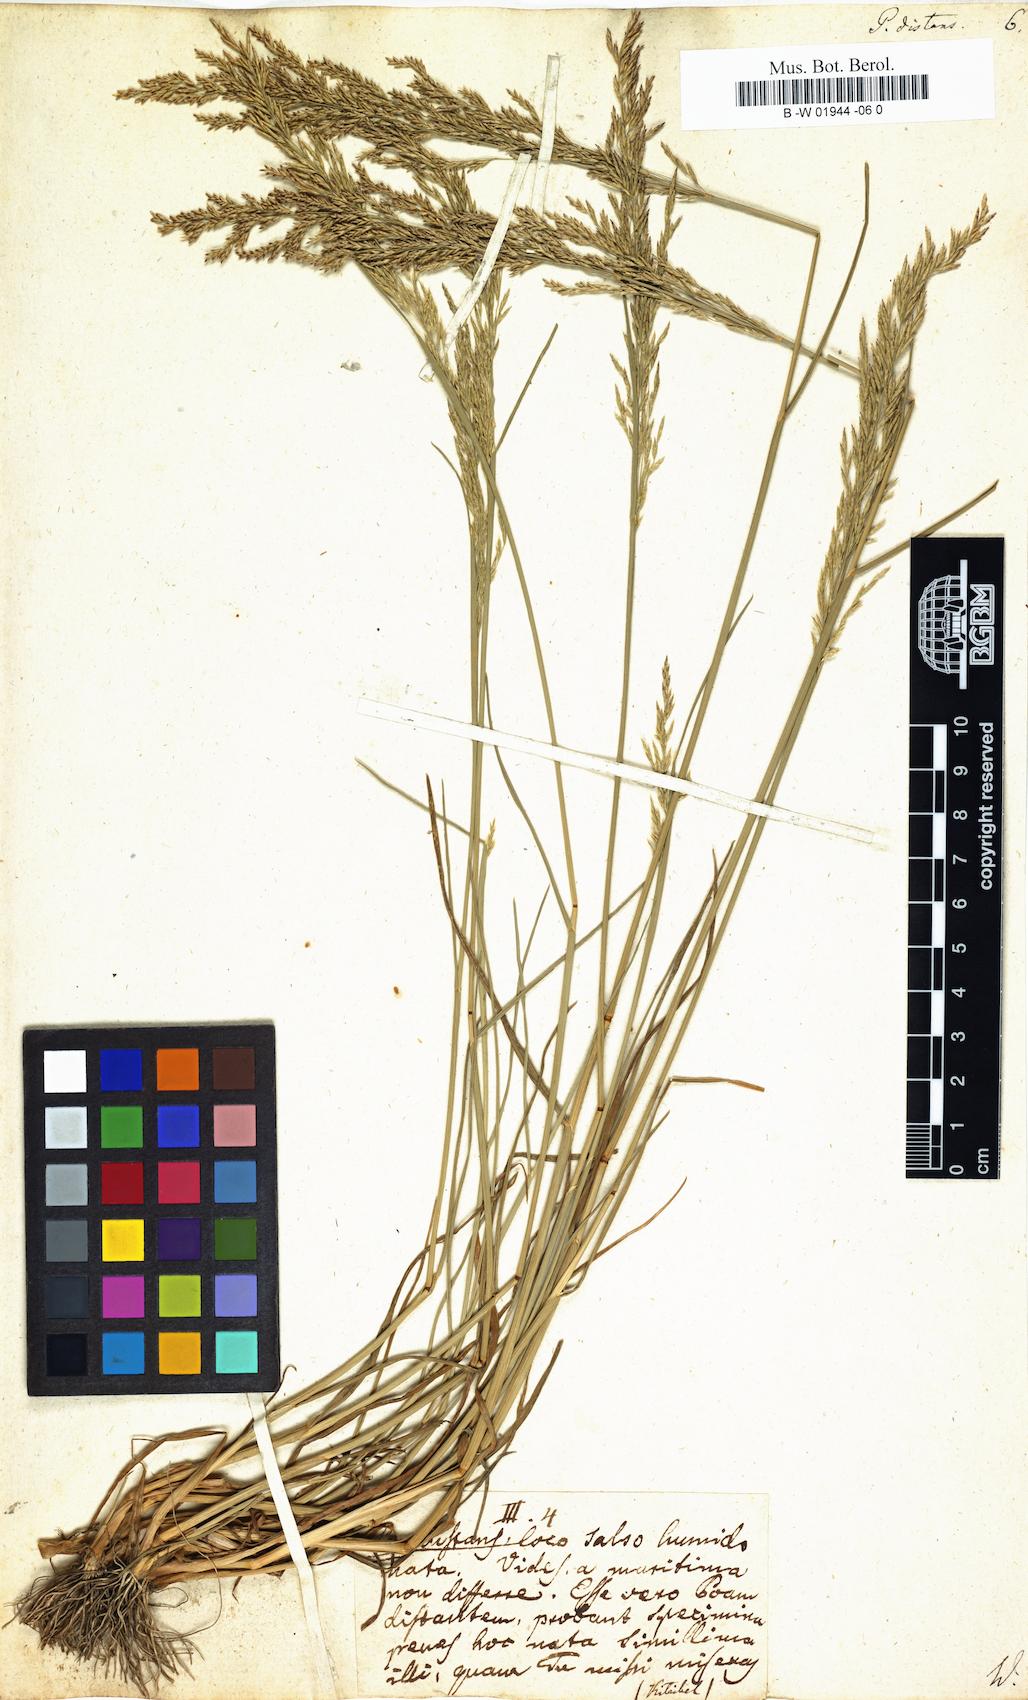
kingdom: Plantae
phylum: Tracheophyta
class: Liliopsida
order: Poales
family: Poaceae
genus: Poa
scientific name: Poa distans
